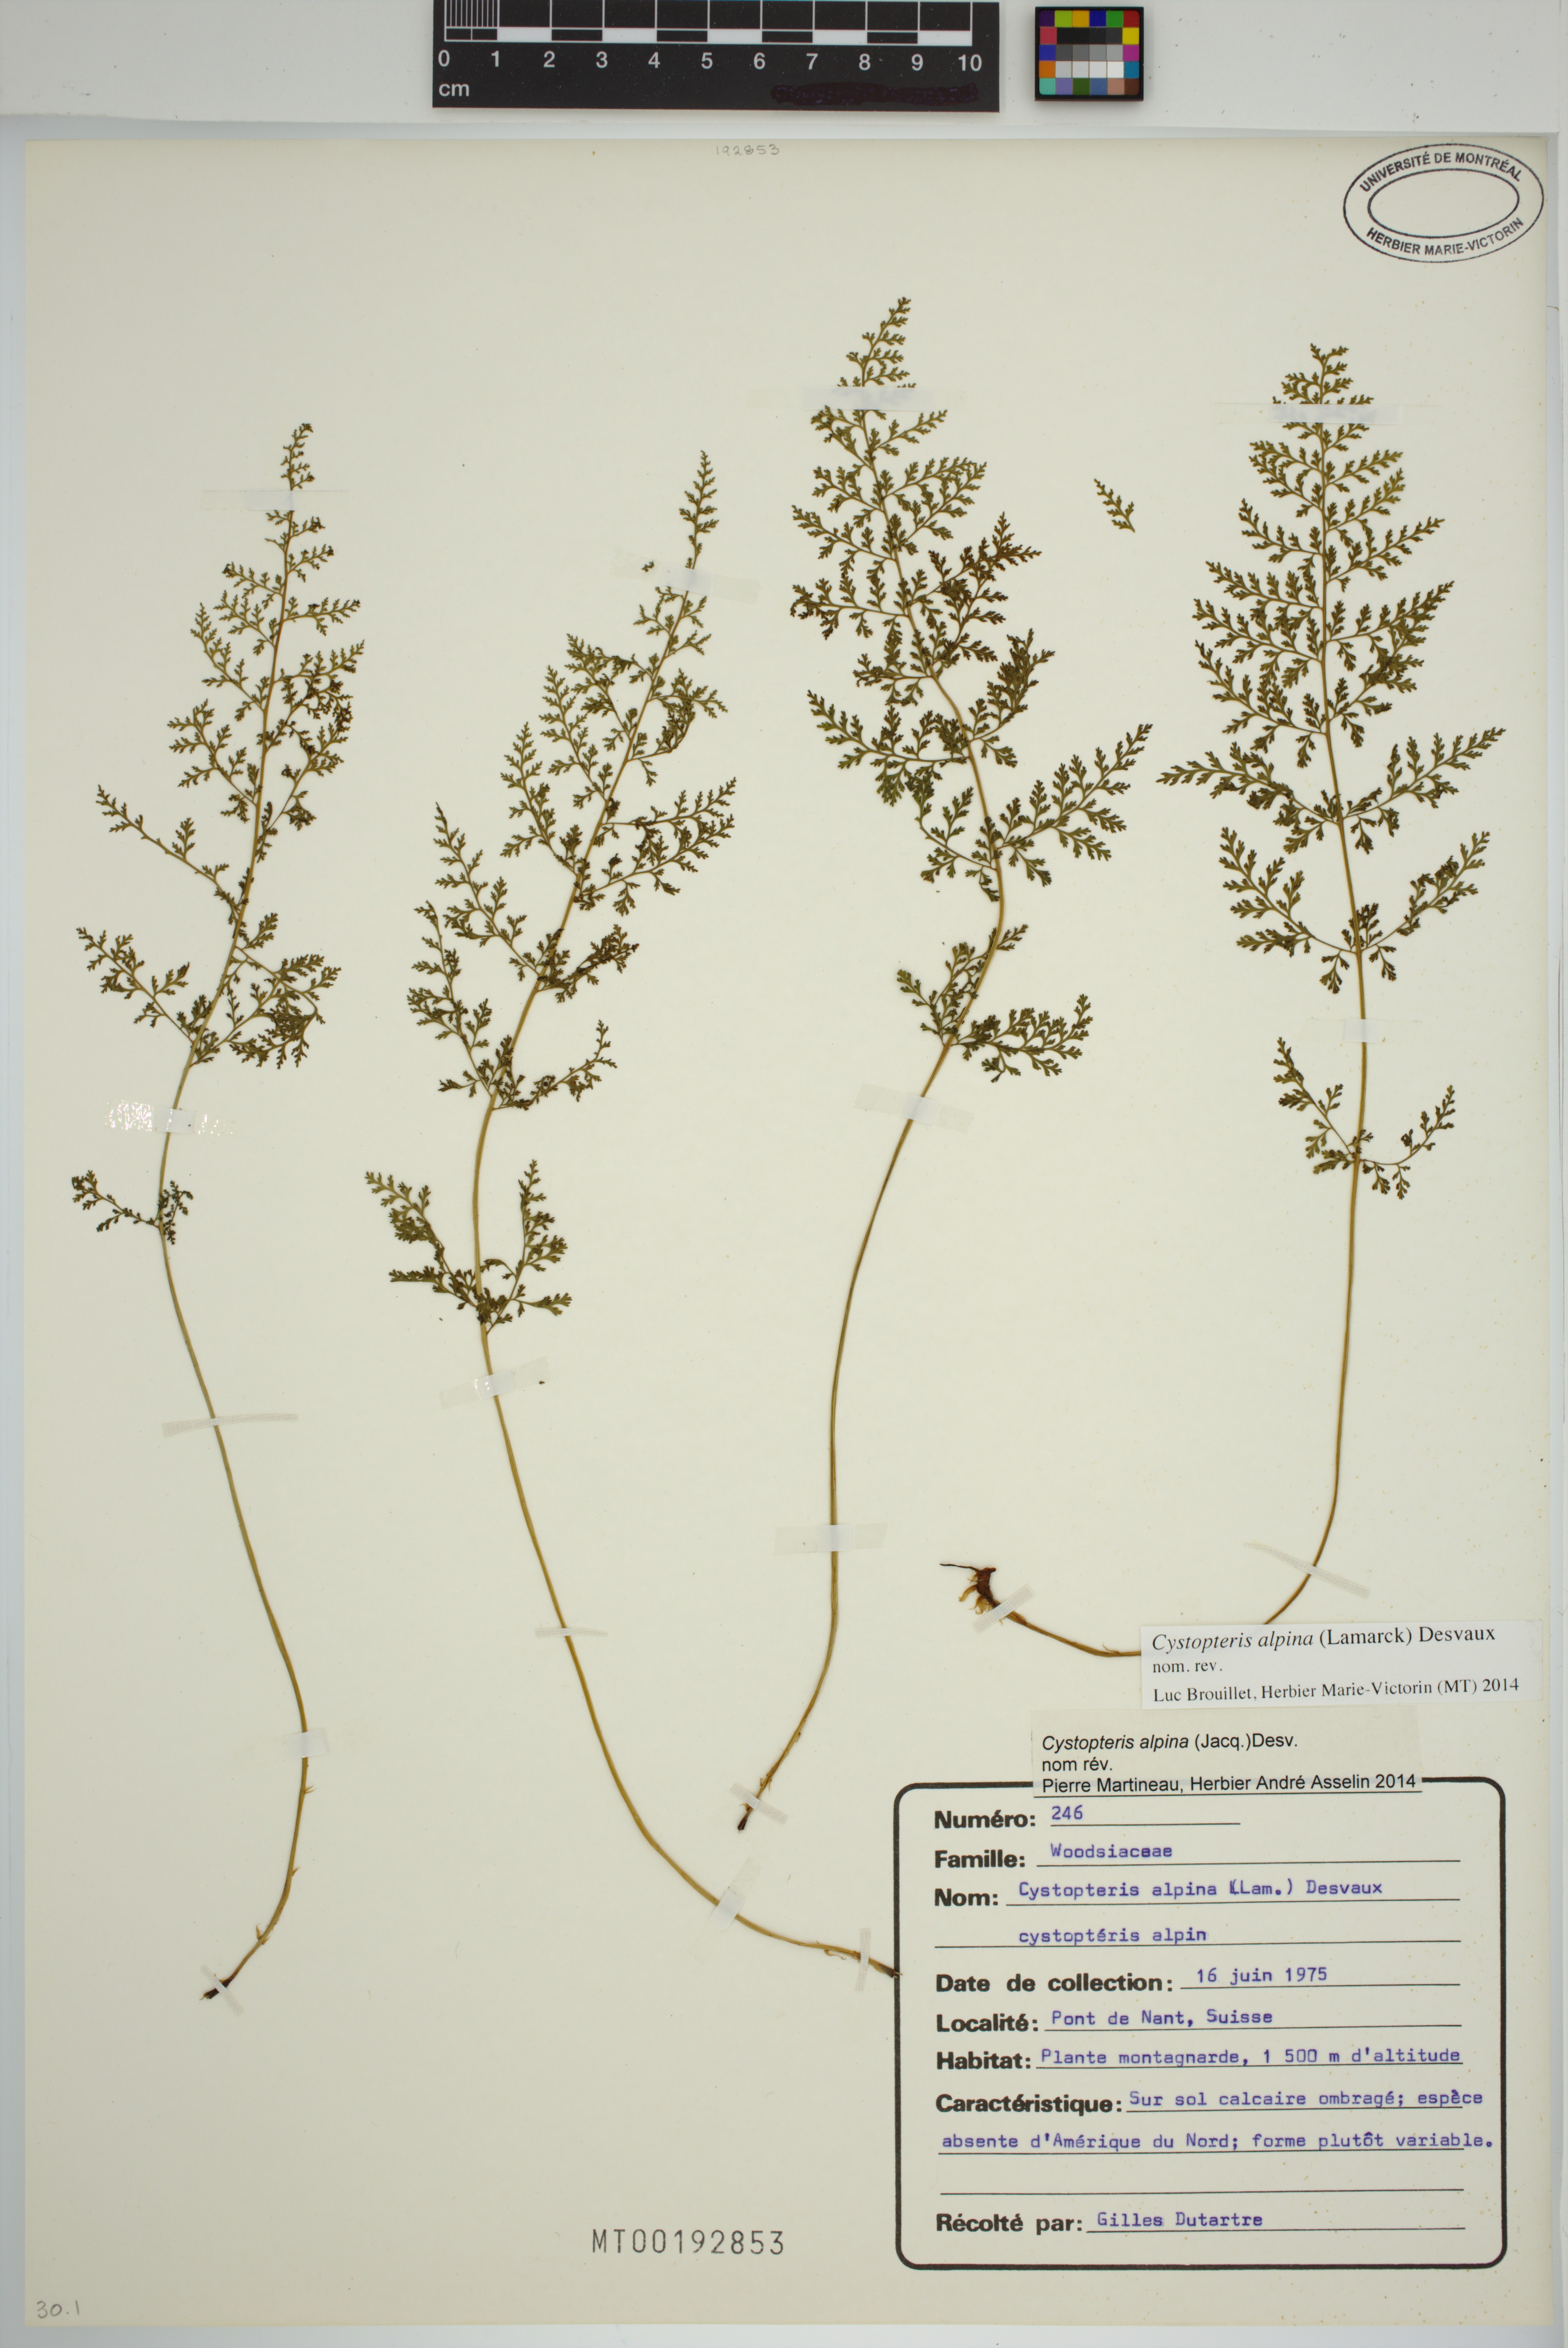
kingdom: Plantae
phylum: Tracheophyta
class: Polypodiopsida
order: Polypodiales
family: Cystopteridaceae
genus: Cystopteris
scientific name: Cystopteris alpina
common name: Alpine bladder-fern
